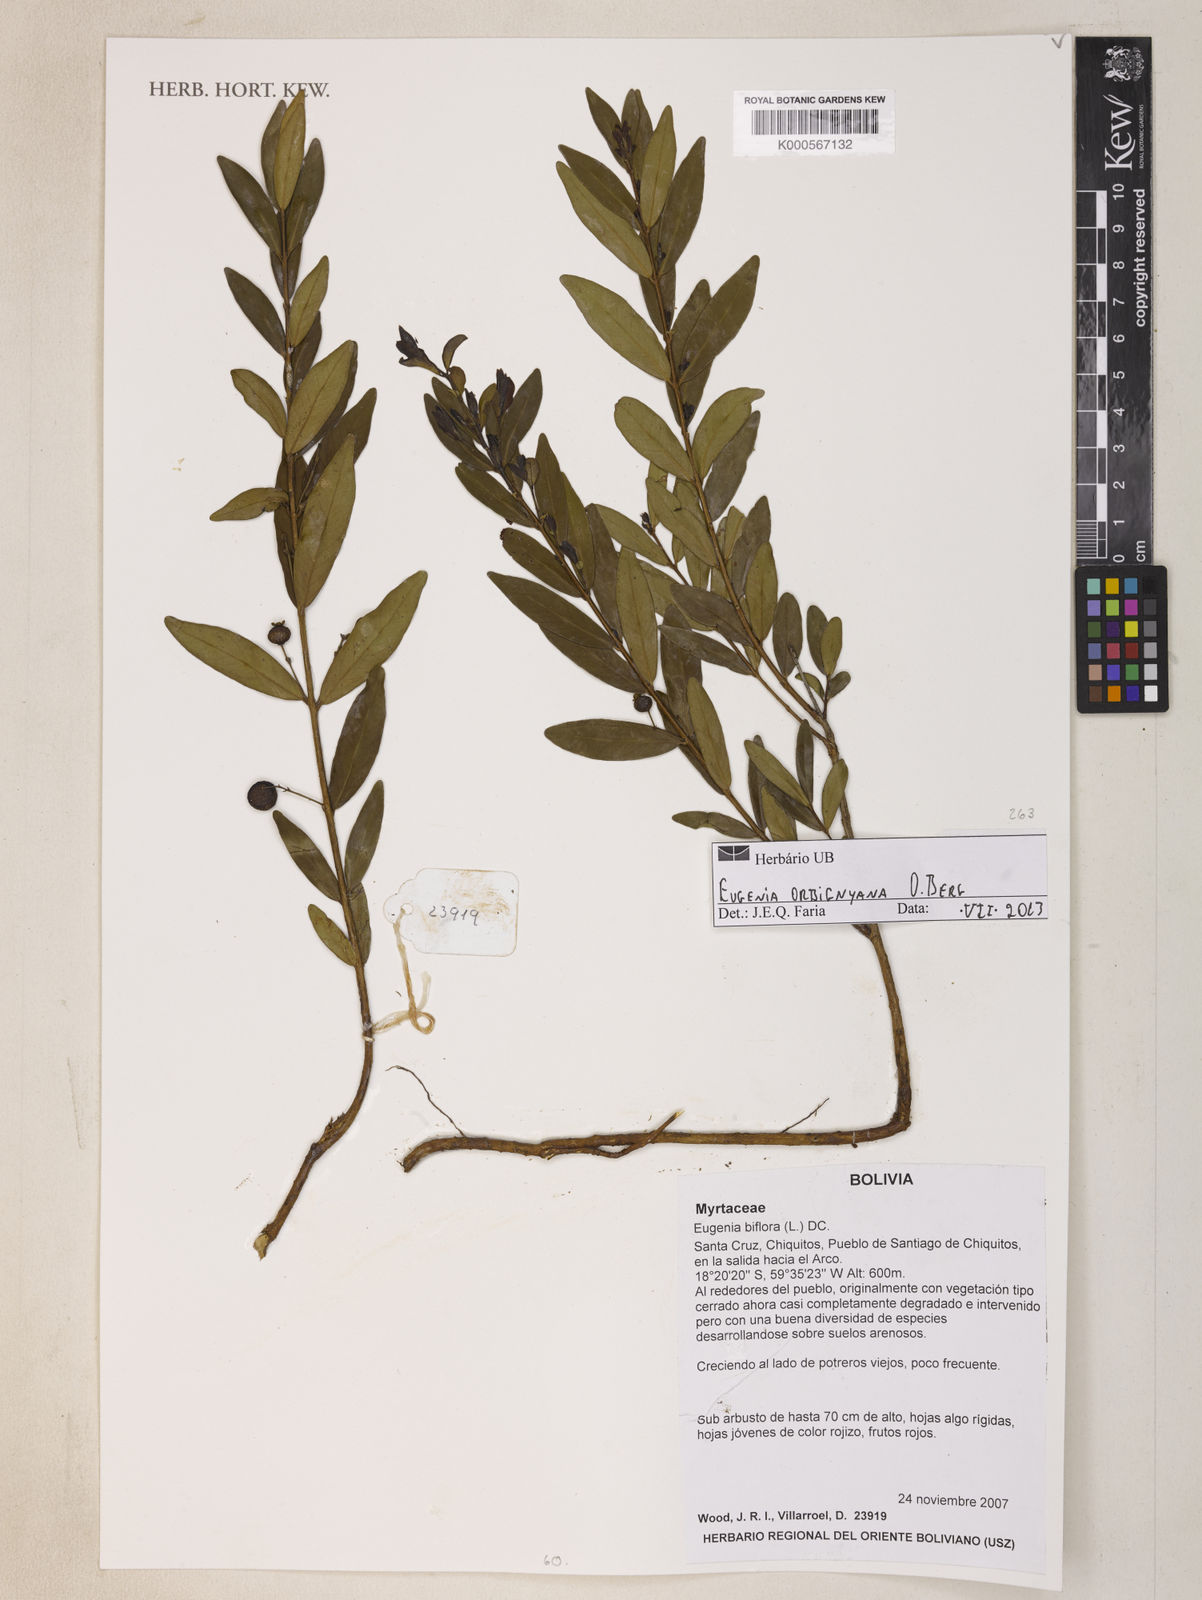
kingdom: Plantae
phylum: Tracheophyta
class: Magnoliopsida
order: Myrtales
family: Myrtaceae
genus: Eugenia
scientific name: Eugenia orbignyana
